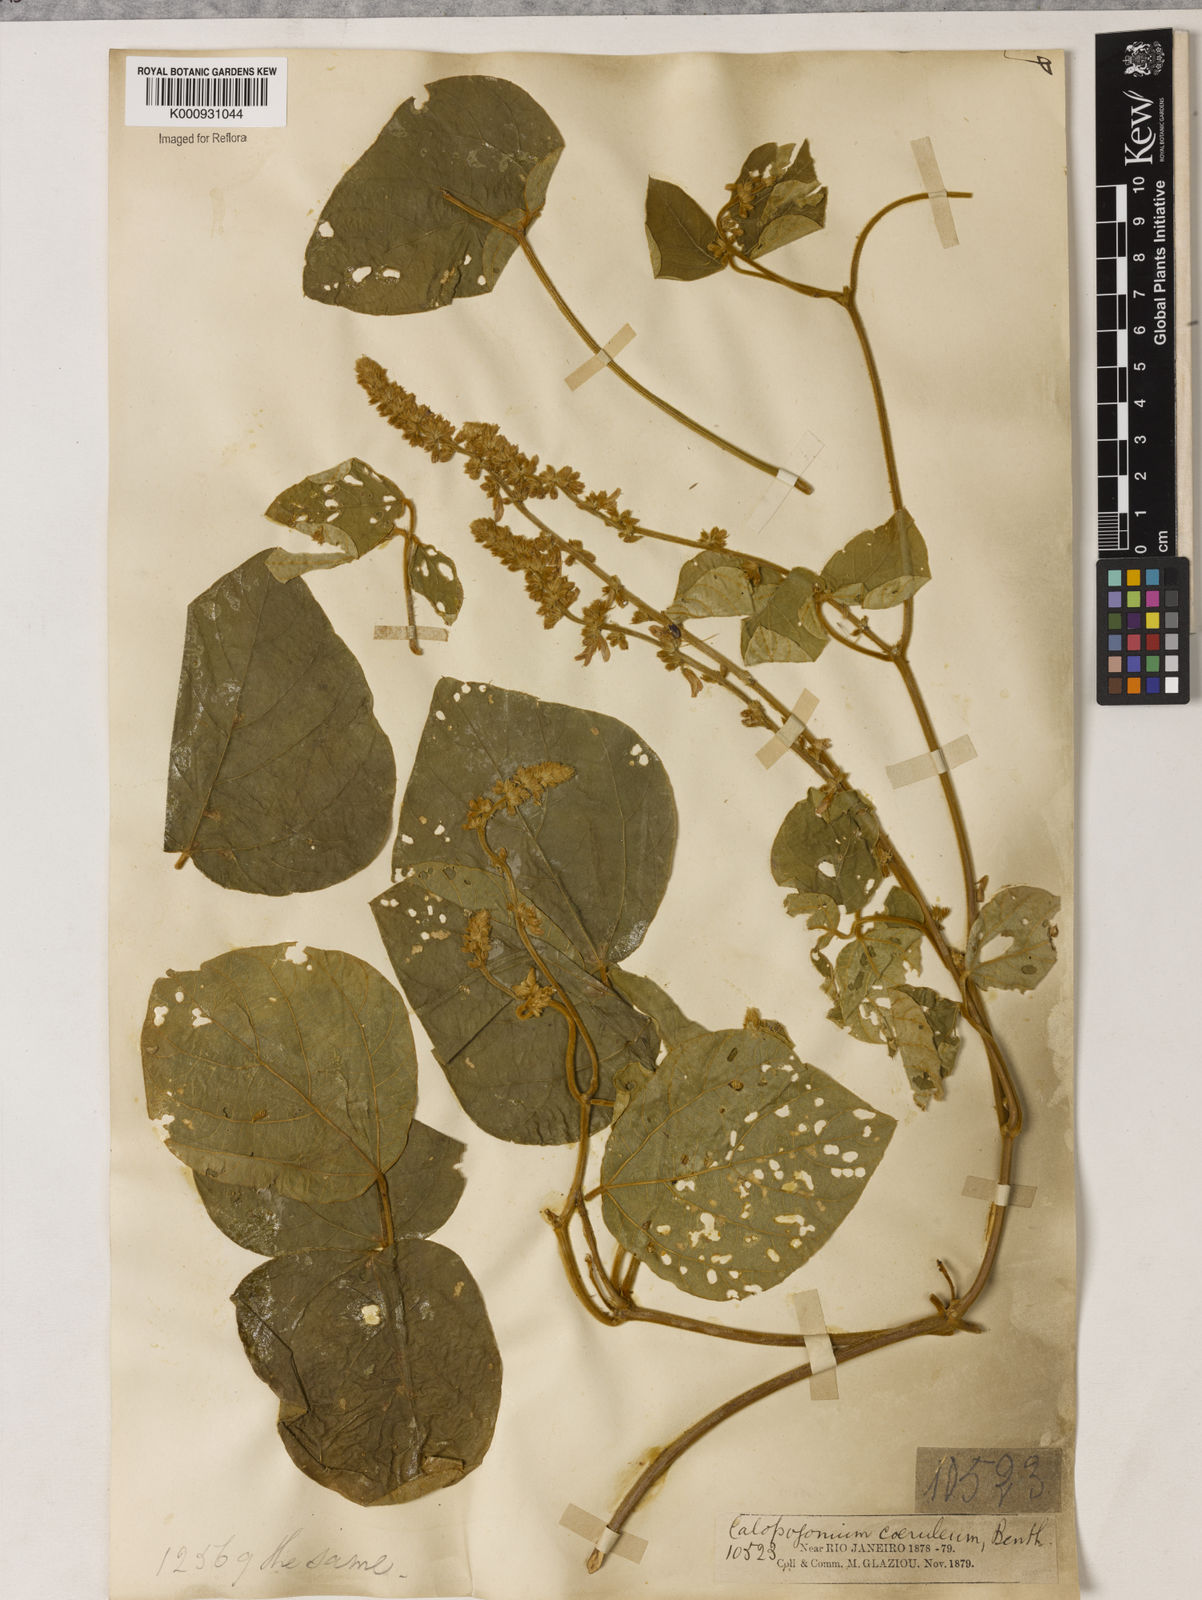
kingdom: Plantae
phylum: Tracheophyta
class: Magnoliopsida
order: Fabales
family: Fabaceae
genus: Calopogonium
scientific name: Calopogonium caeruleum
